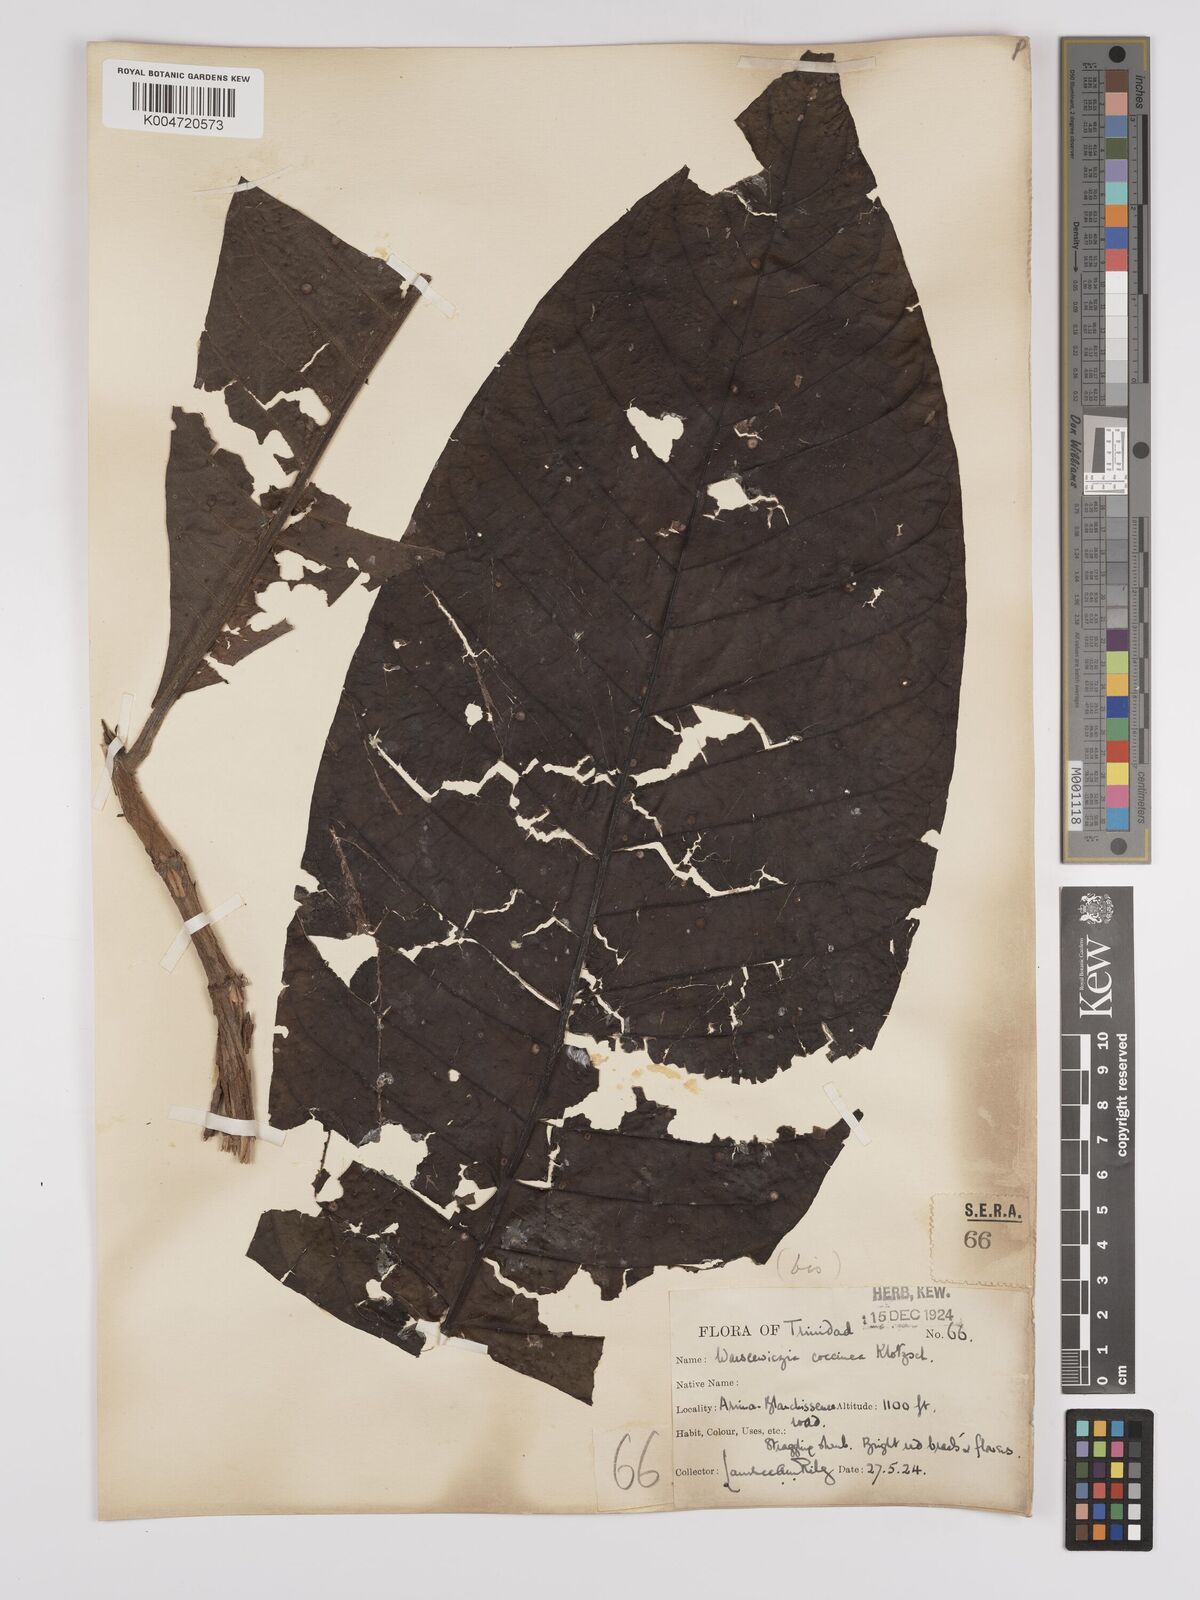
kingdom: Plantae
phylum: Tracheophyta
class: Magnoliopsida
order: Gentianales
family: Rubiaceae
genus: Warszewiczia
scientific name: Warszewiczia coccinea
